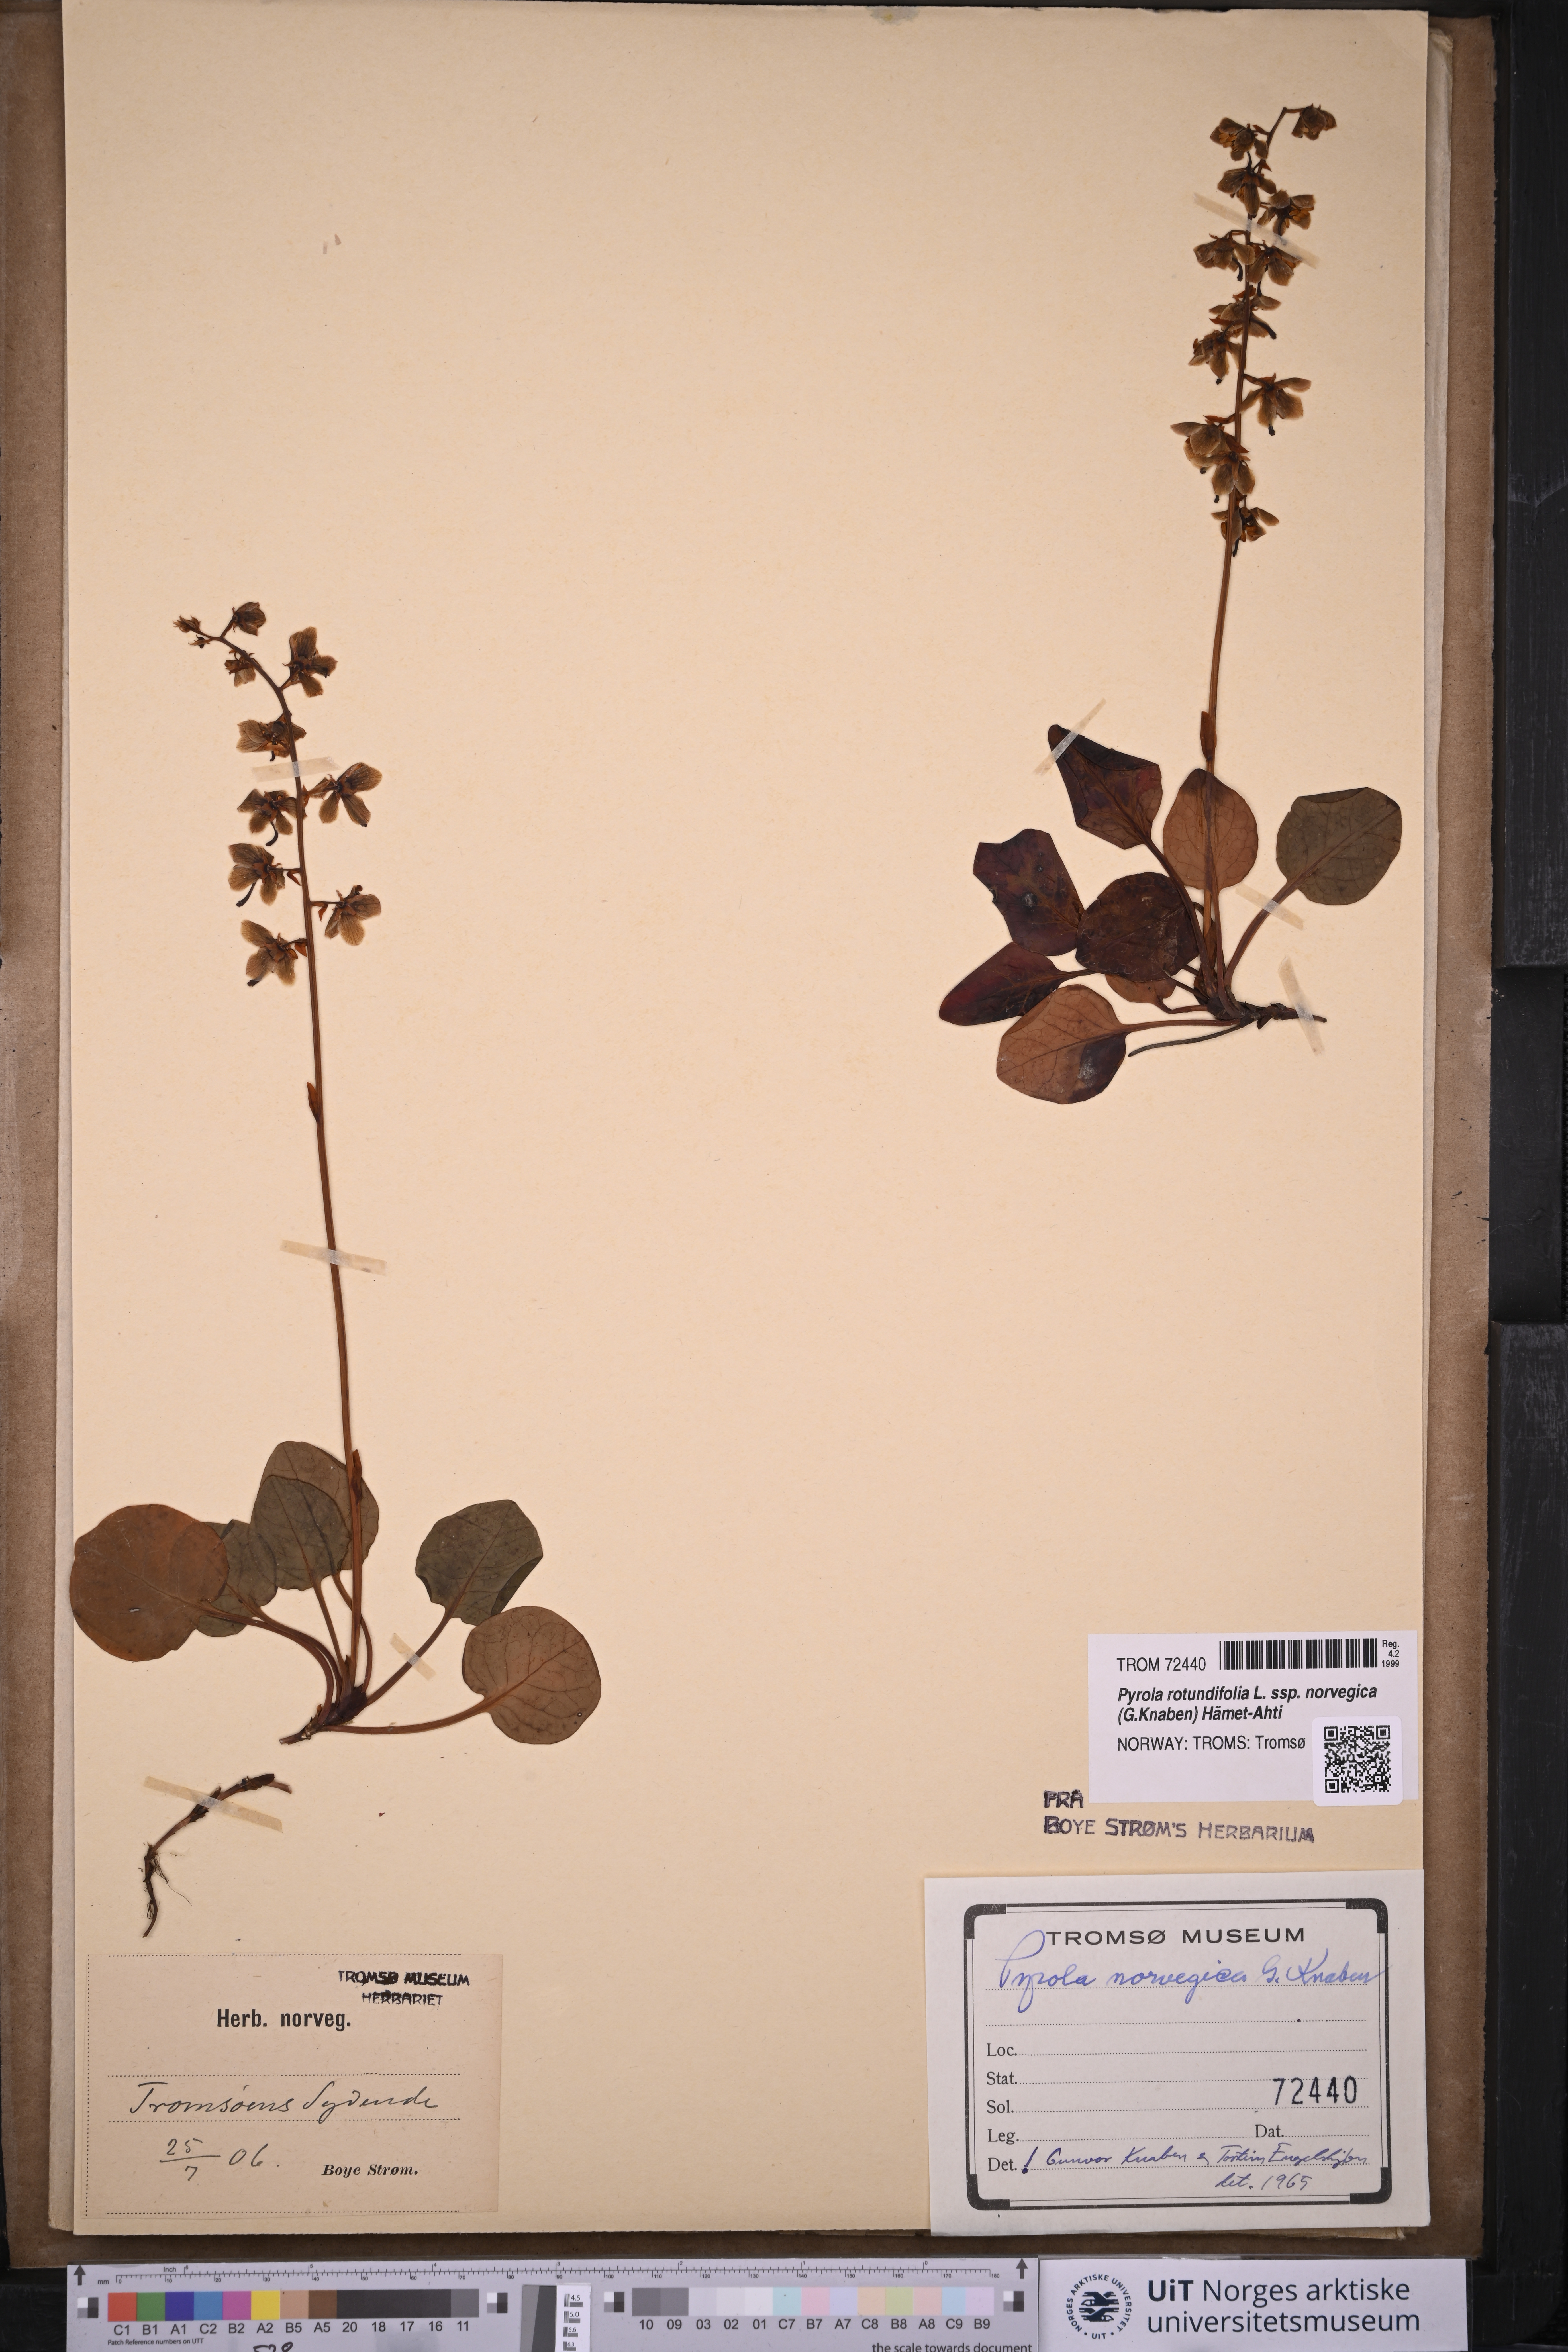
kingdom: Plantae
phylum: Tracheophyta
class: Magnoliopsida
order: Ericales
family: Ericaceae
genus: Pyrola
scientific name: Pyrola rotundifolia
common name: Round-leaved wintergreen
